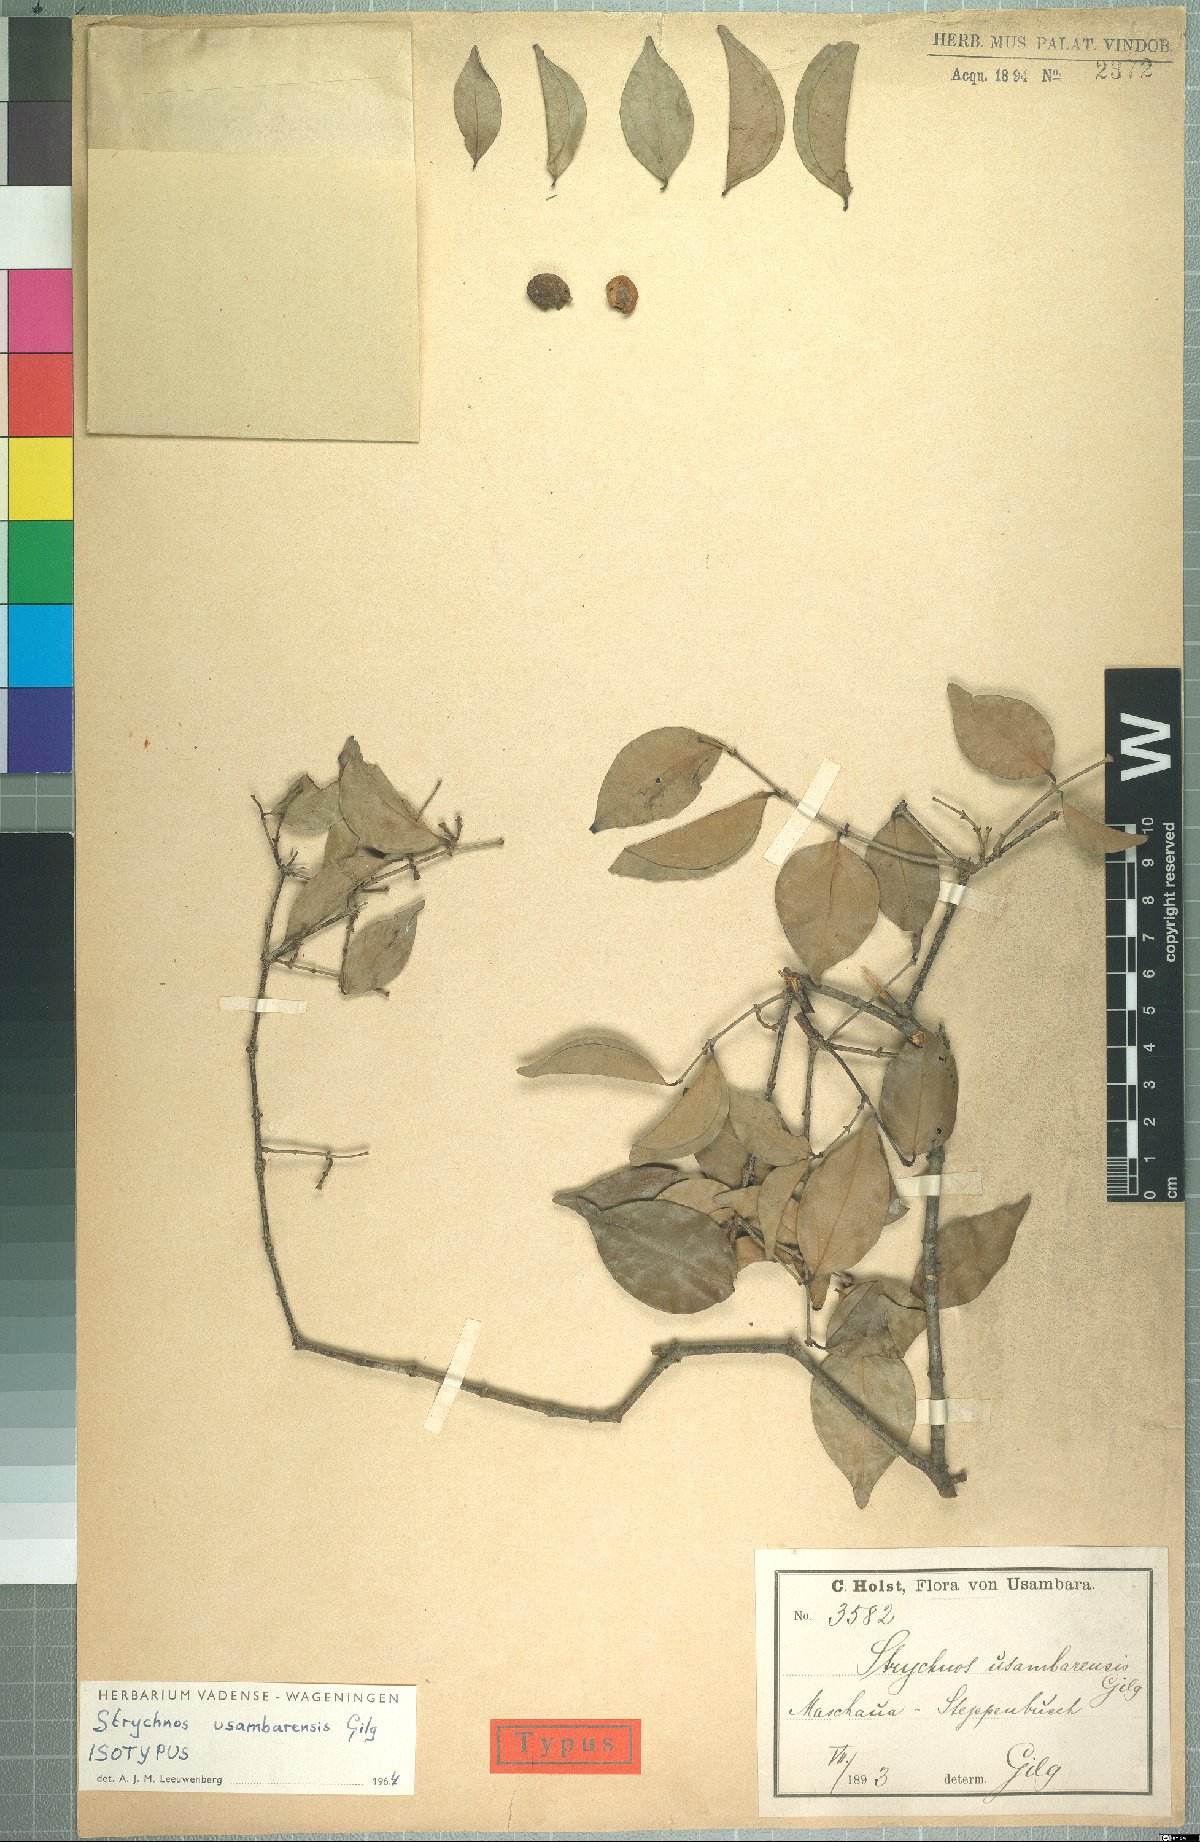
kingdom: Plantae
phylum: Tracheophyta
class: Magnoliopsida
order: Gentianales
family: Loganiaceae
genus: Strychnos
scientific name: Strychnos usambarensis
